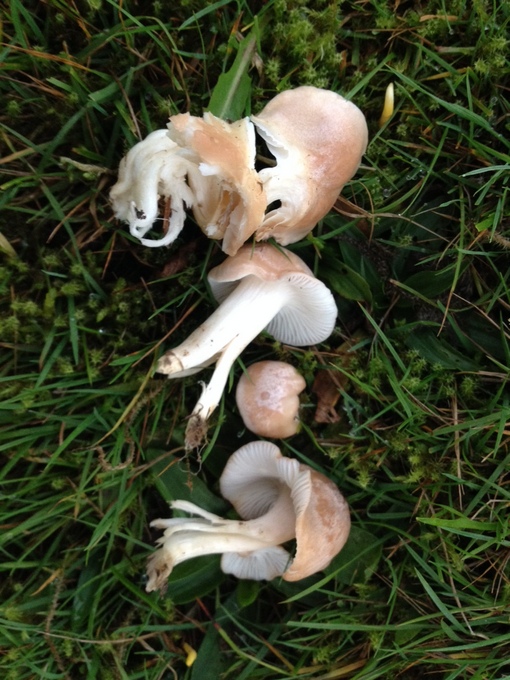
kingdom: Fungi
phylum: Basidiomycota
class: Agaricomycetes
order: Agaricales
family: Hygrophoraceae
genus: Cuphophyllus
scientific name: Cuphophyllus
